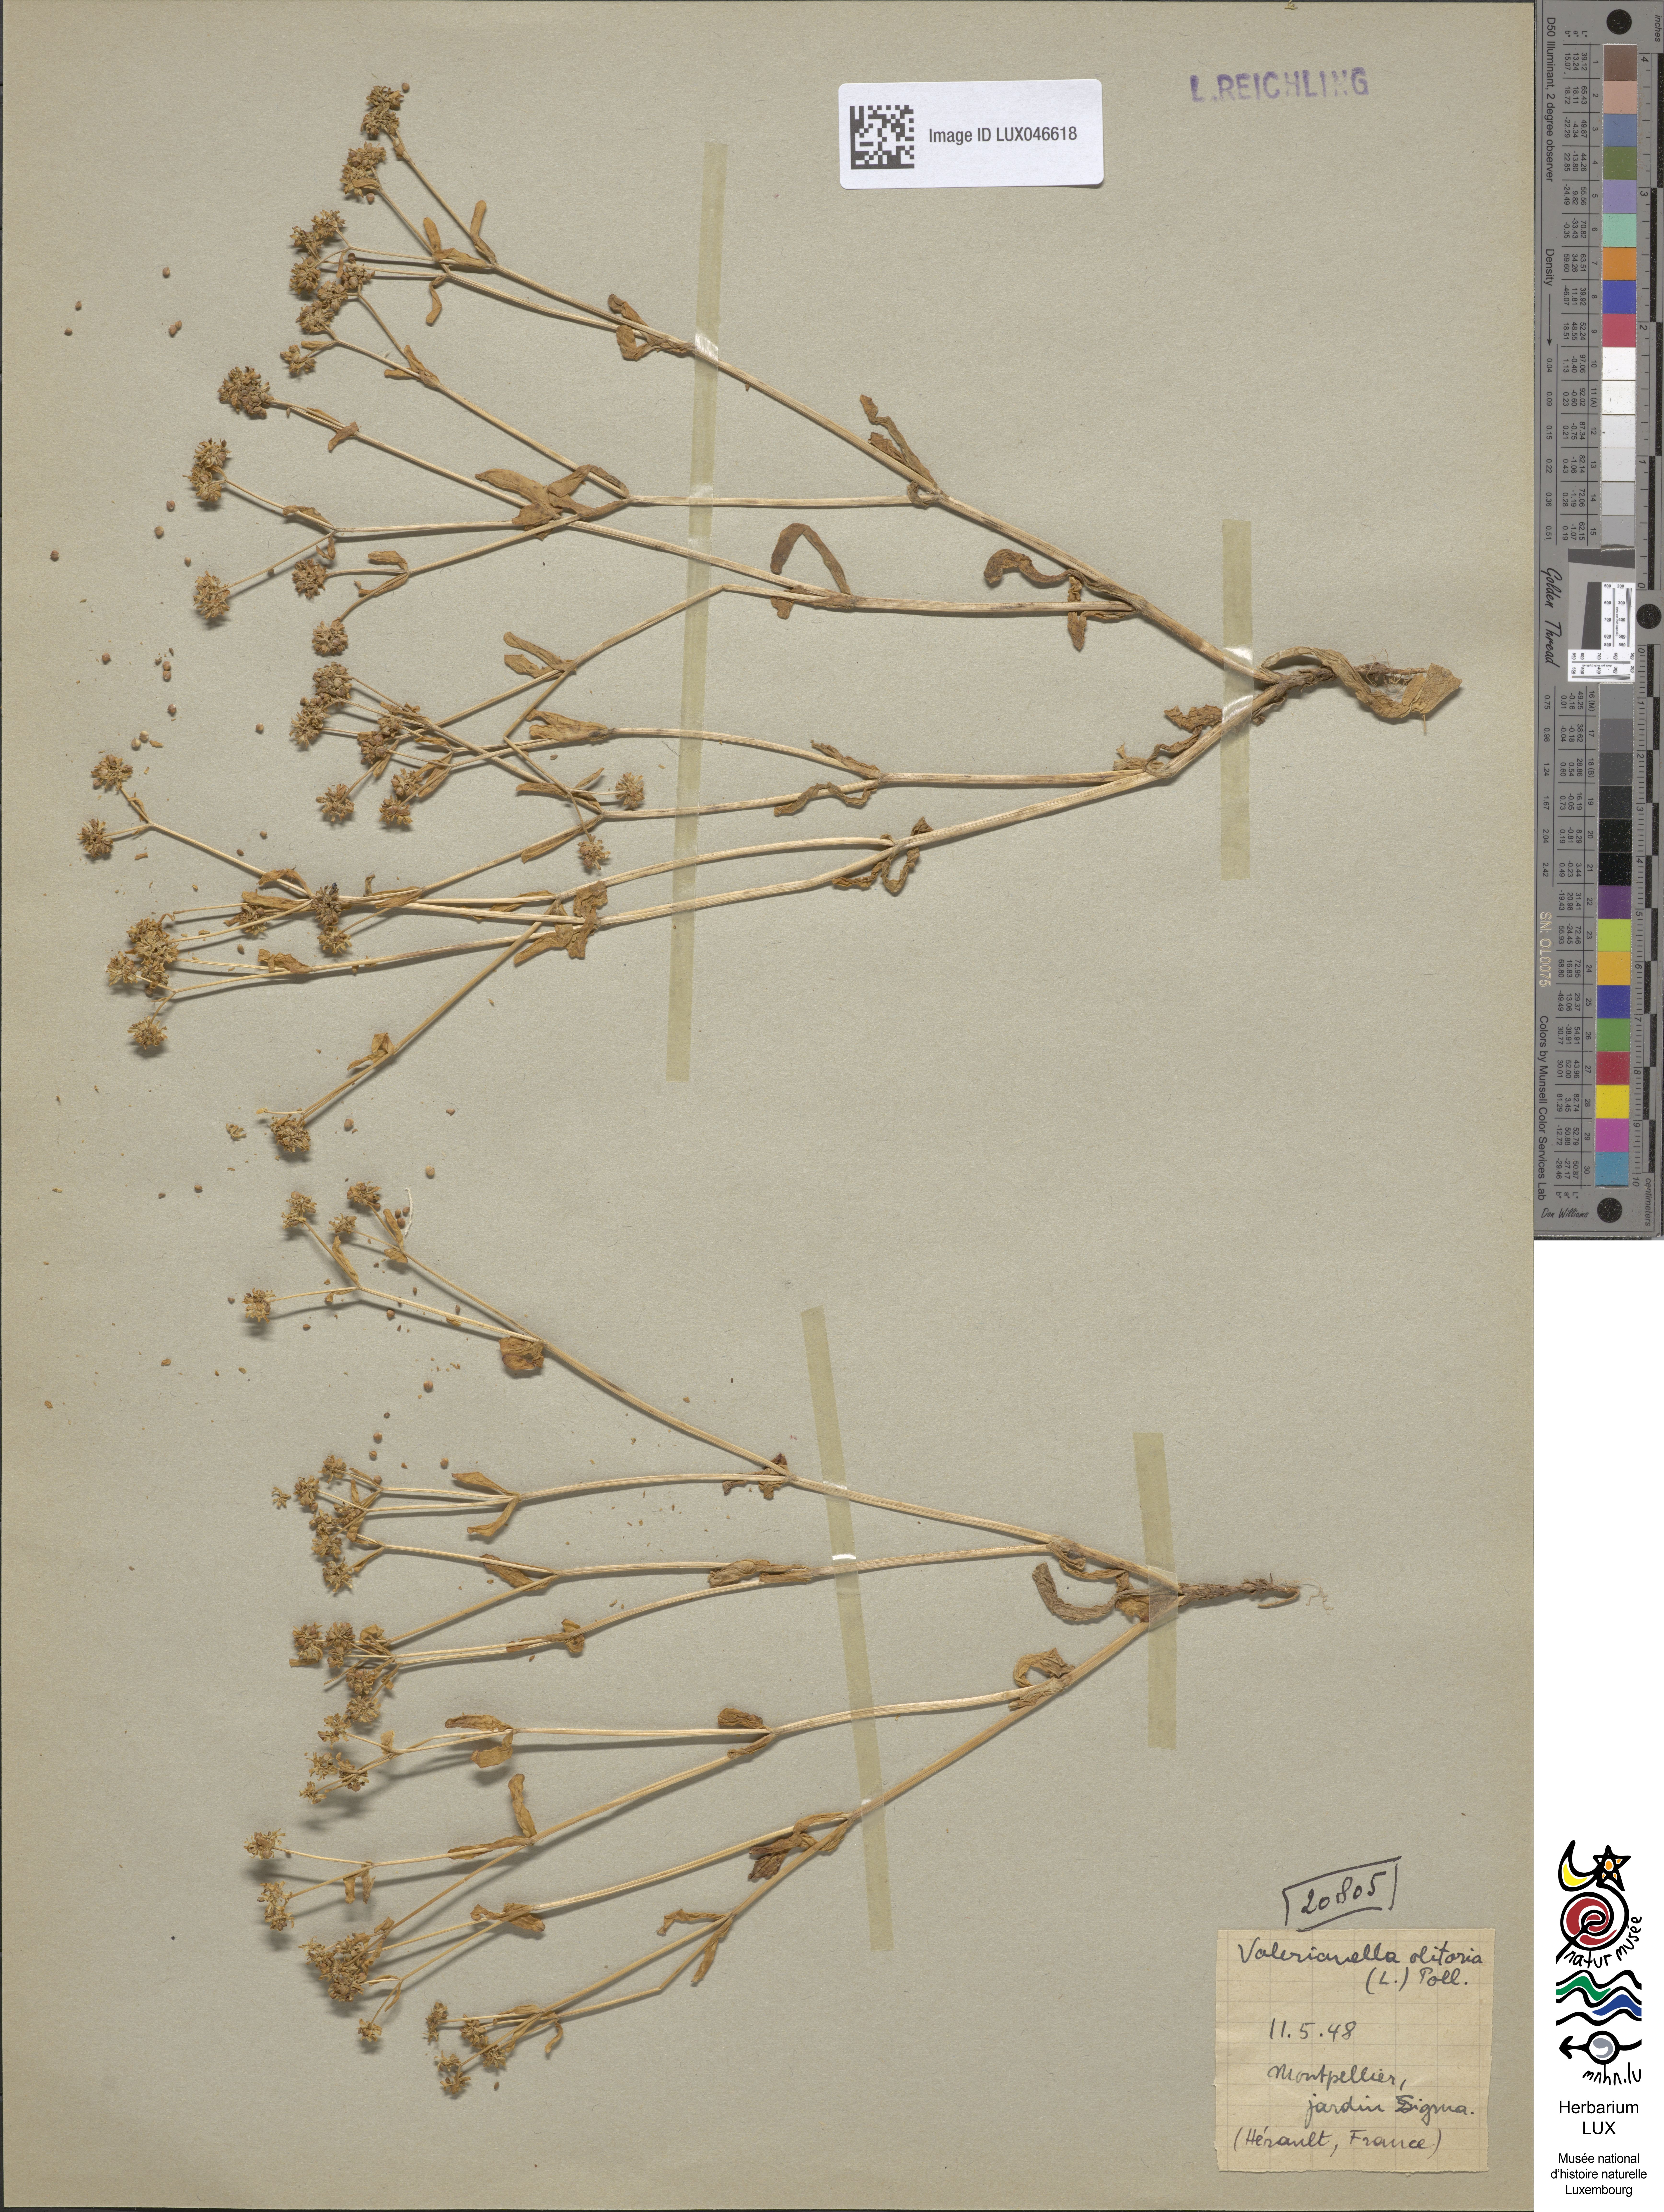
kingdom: Plantae
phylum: Tracheophyta
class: Magnoliopsida
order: Dipsacales
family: Caprifoliaceae
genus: Valerianella
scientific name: Valerianella locusta
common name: Common cornsalad
